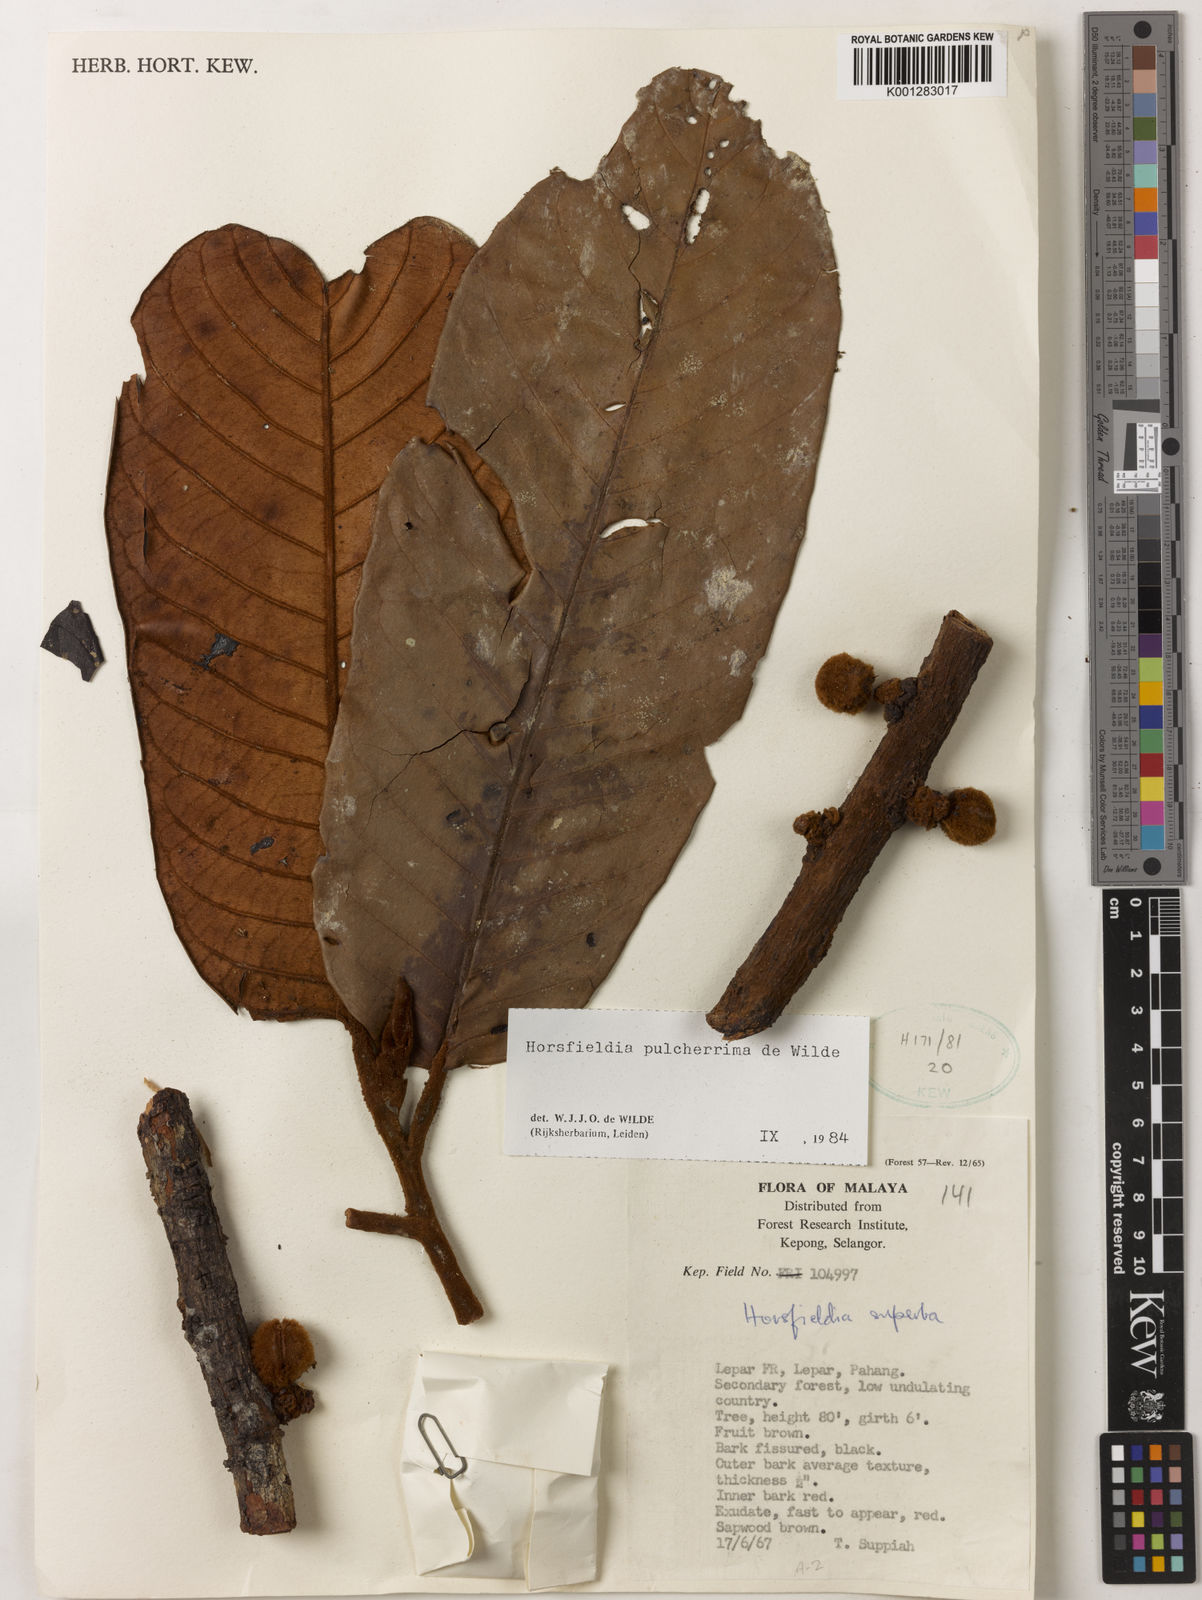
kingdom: Plantae
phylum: Tracheophyta
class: Magnoliopsida
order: Magnoliales
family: Myristicaceae
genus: Horsfieldia
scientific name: Horsfieldia pulcherrima
